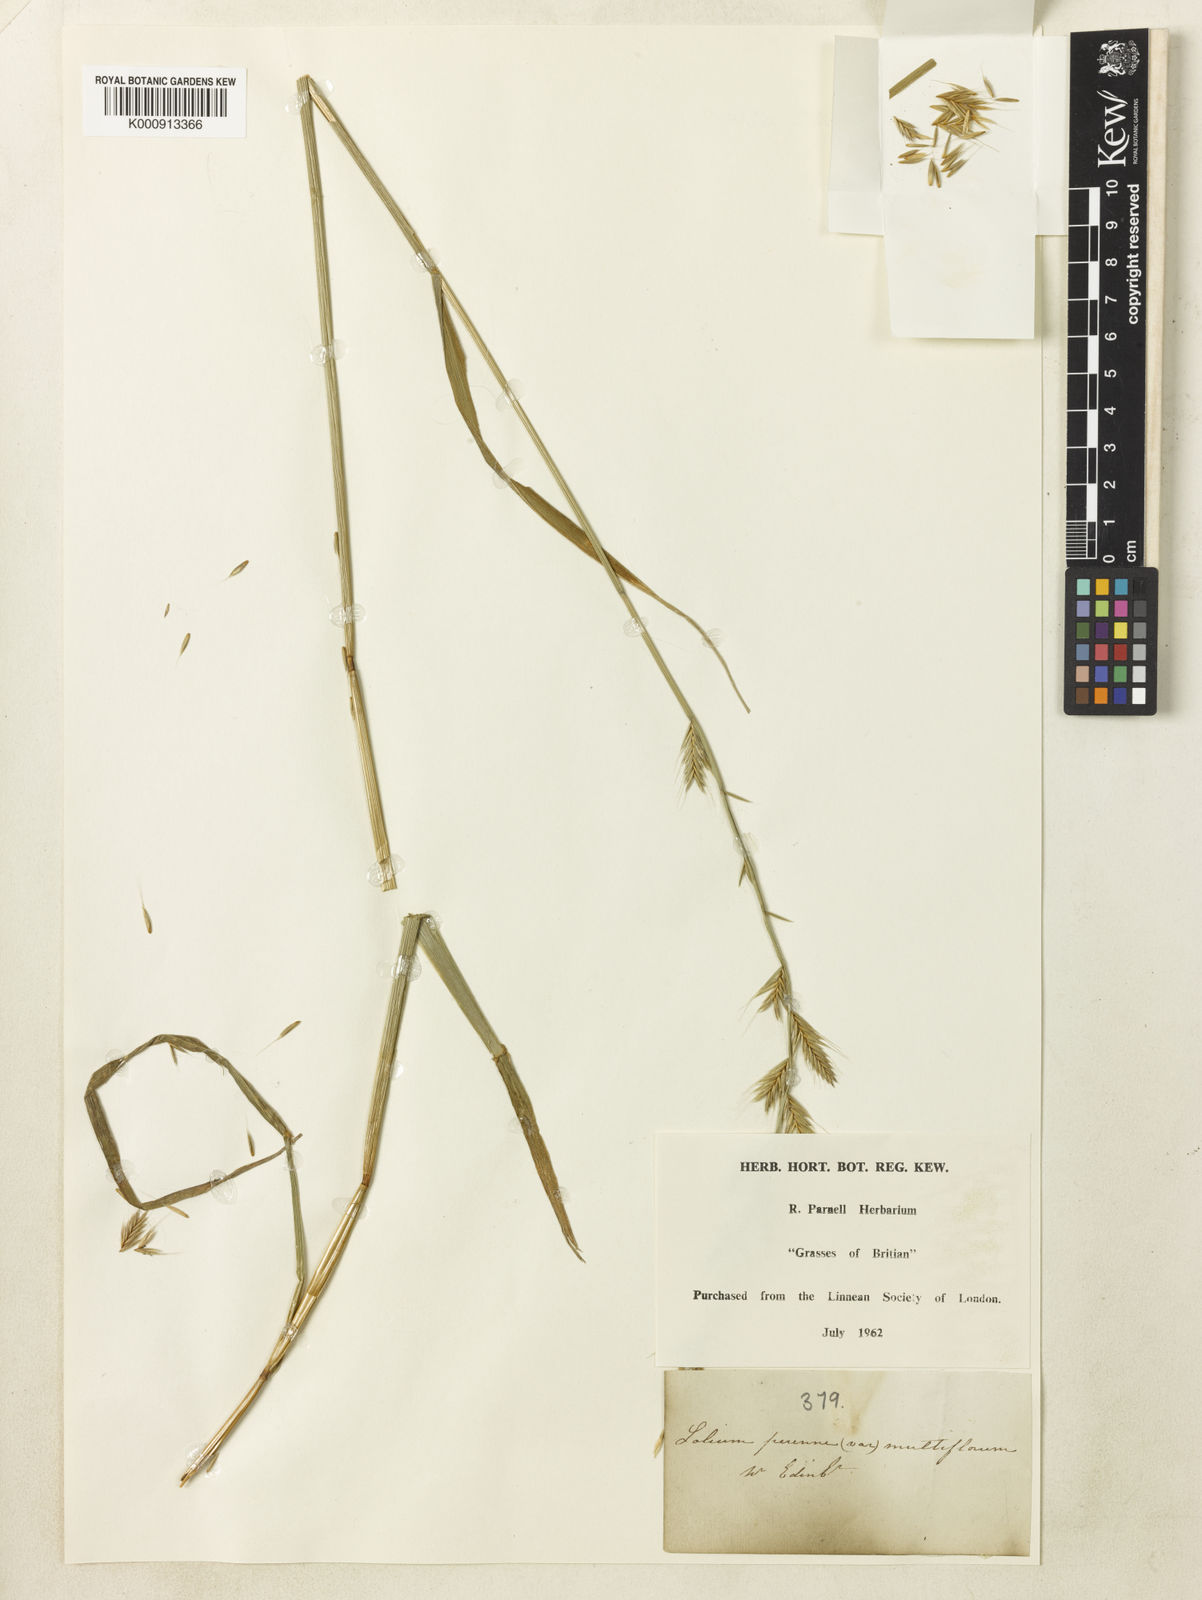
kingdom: Plantae
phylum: Tracheophyta
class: Liliopsida
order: Poales
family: Poaceae
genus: Lolium
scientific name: Lolium perenne
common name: Perennial ryegrass
